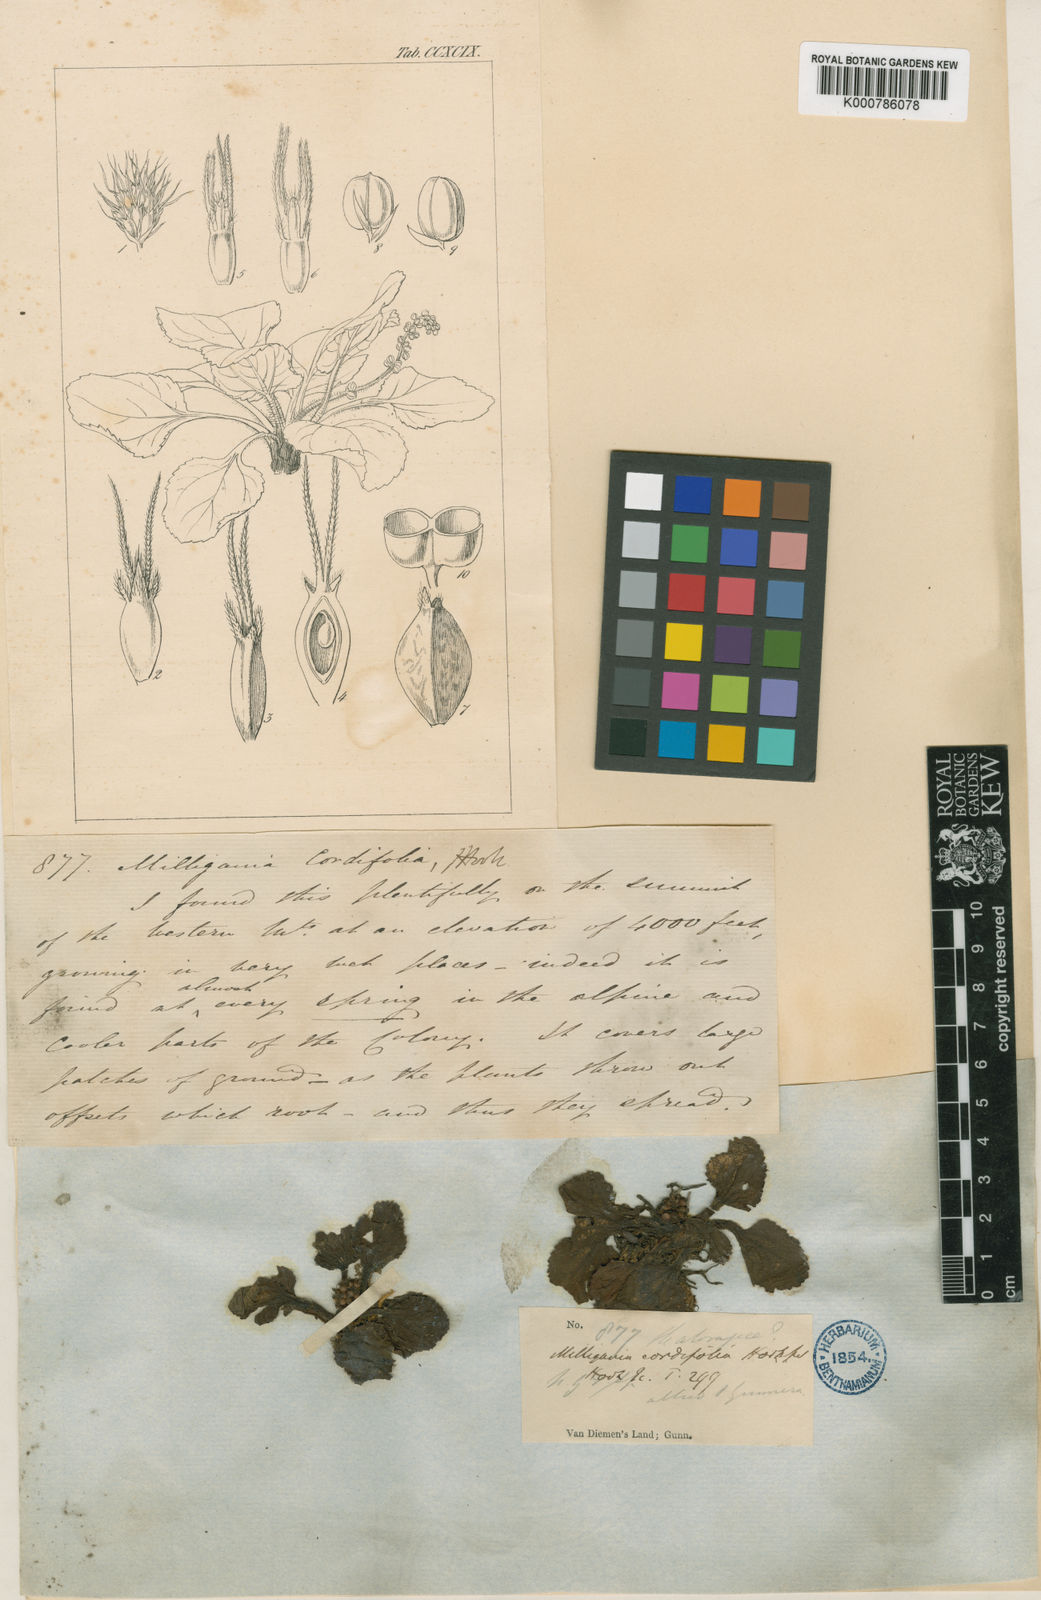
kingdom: Plantae
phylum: Tracheophyta
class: Magnoliopsida
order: Gunnerales
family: Gunneraceae
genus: Gunnera
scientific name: Gunnera cordifolia
